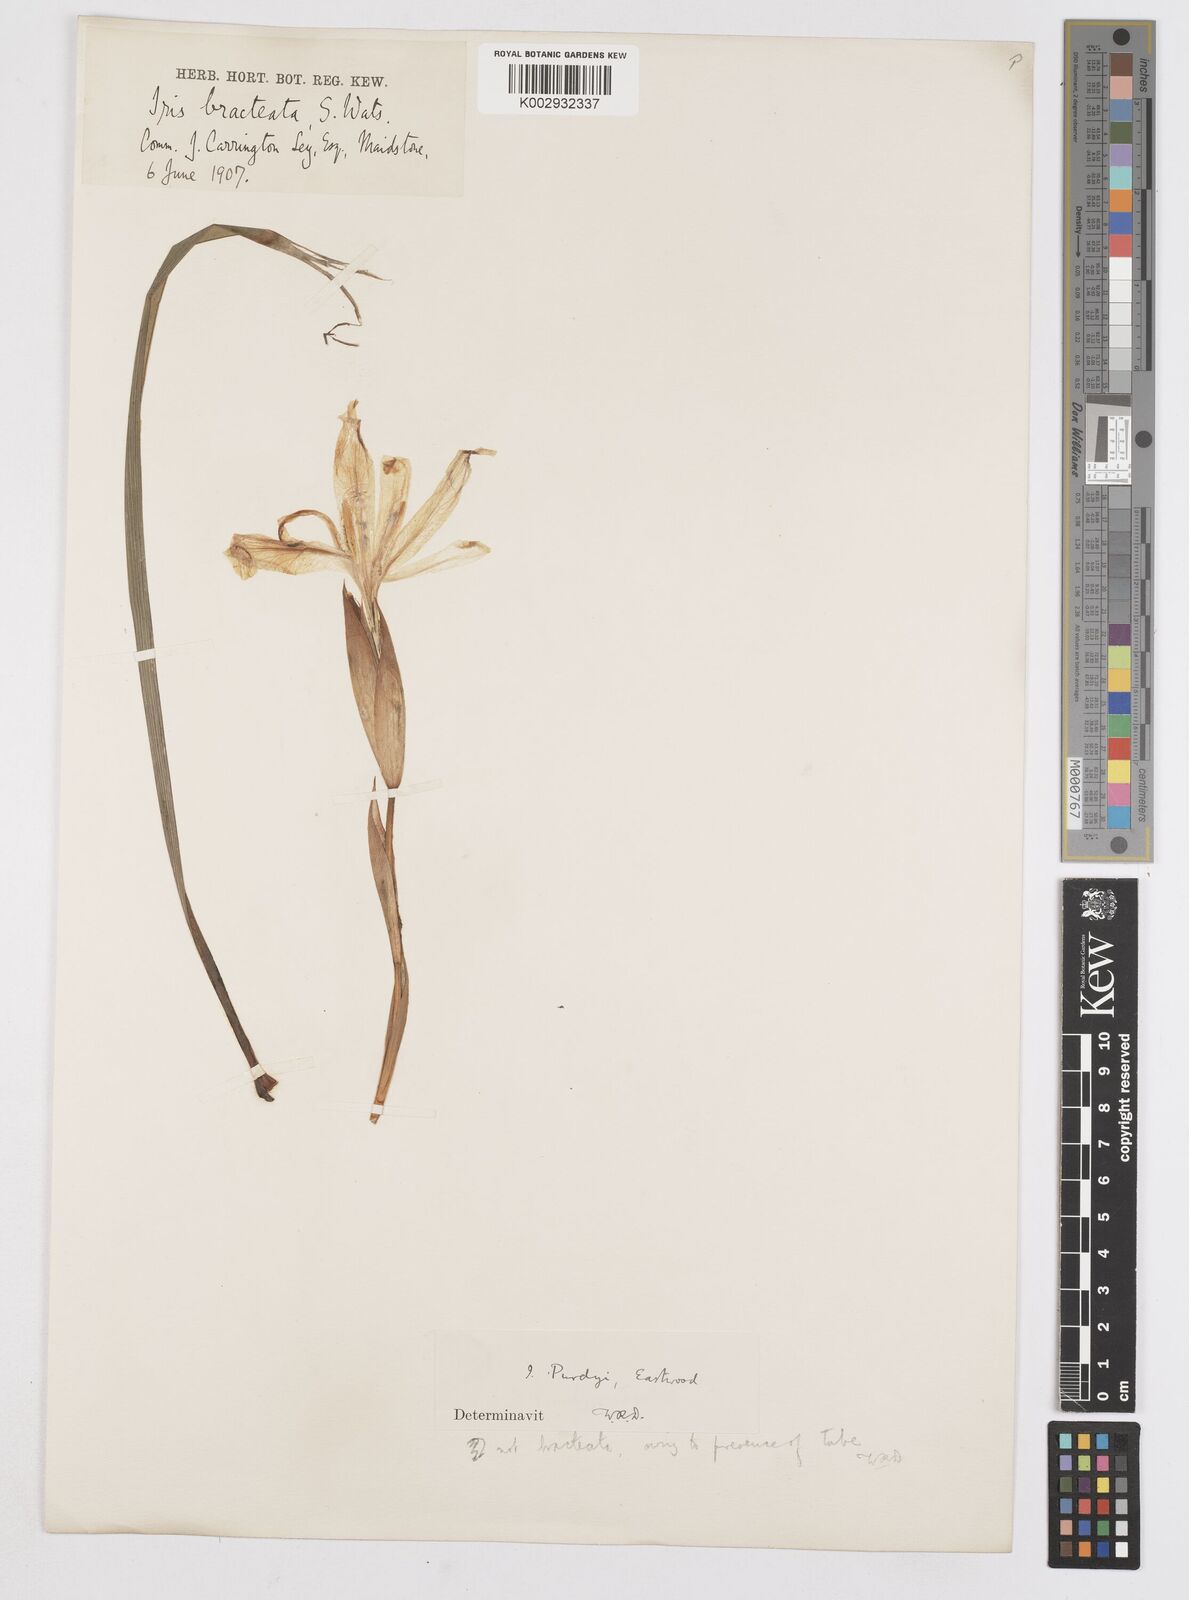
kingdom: Plantae
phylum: Tracheophyta
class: Liliopsida
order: Asparagales
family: Iridaceae
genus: Iris
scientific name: Iris purdyi
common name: Purdy's iris
